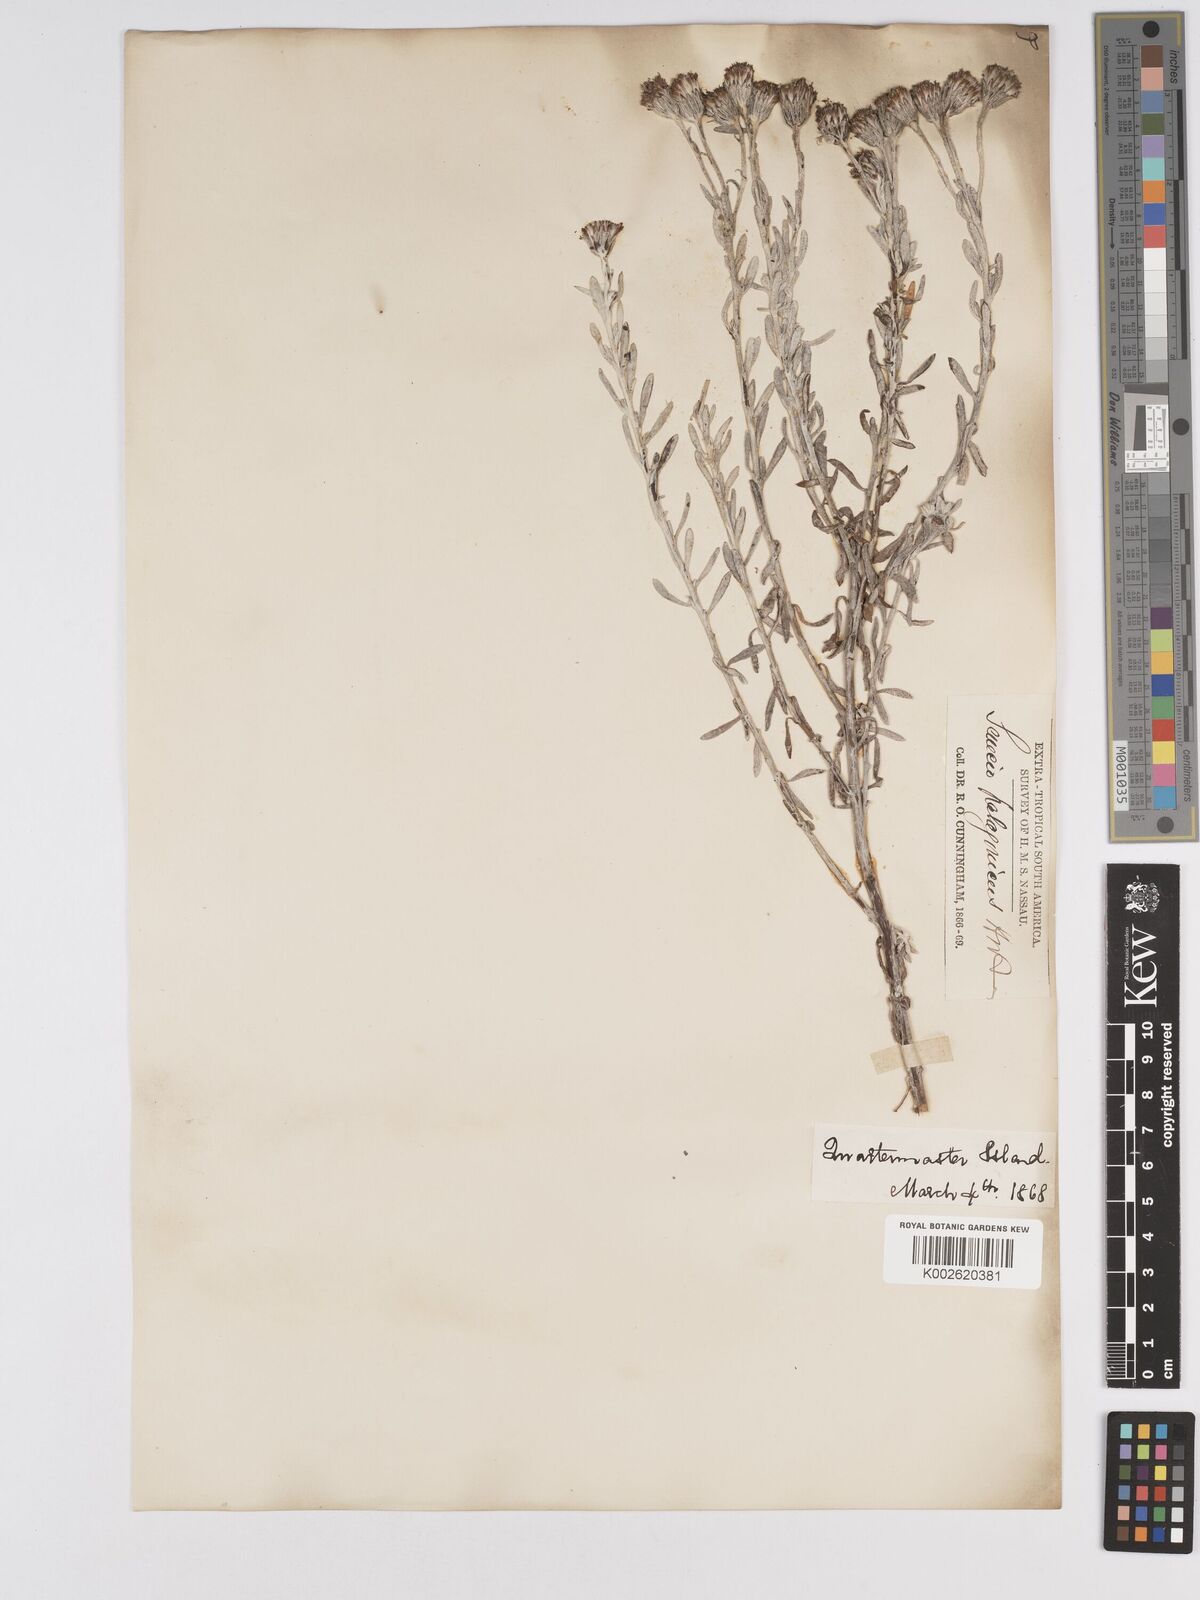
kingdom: Plantae
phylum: Tracheophyta
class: Magnoliopsida
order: Asterales
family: Asteraceae
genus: Senecio
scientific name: Senecio patagonicus
